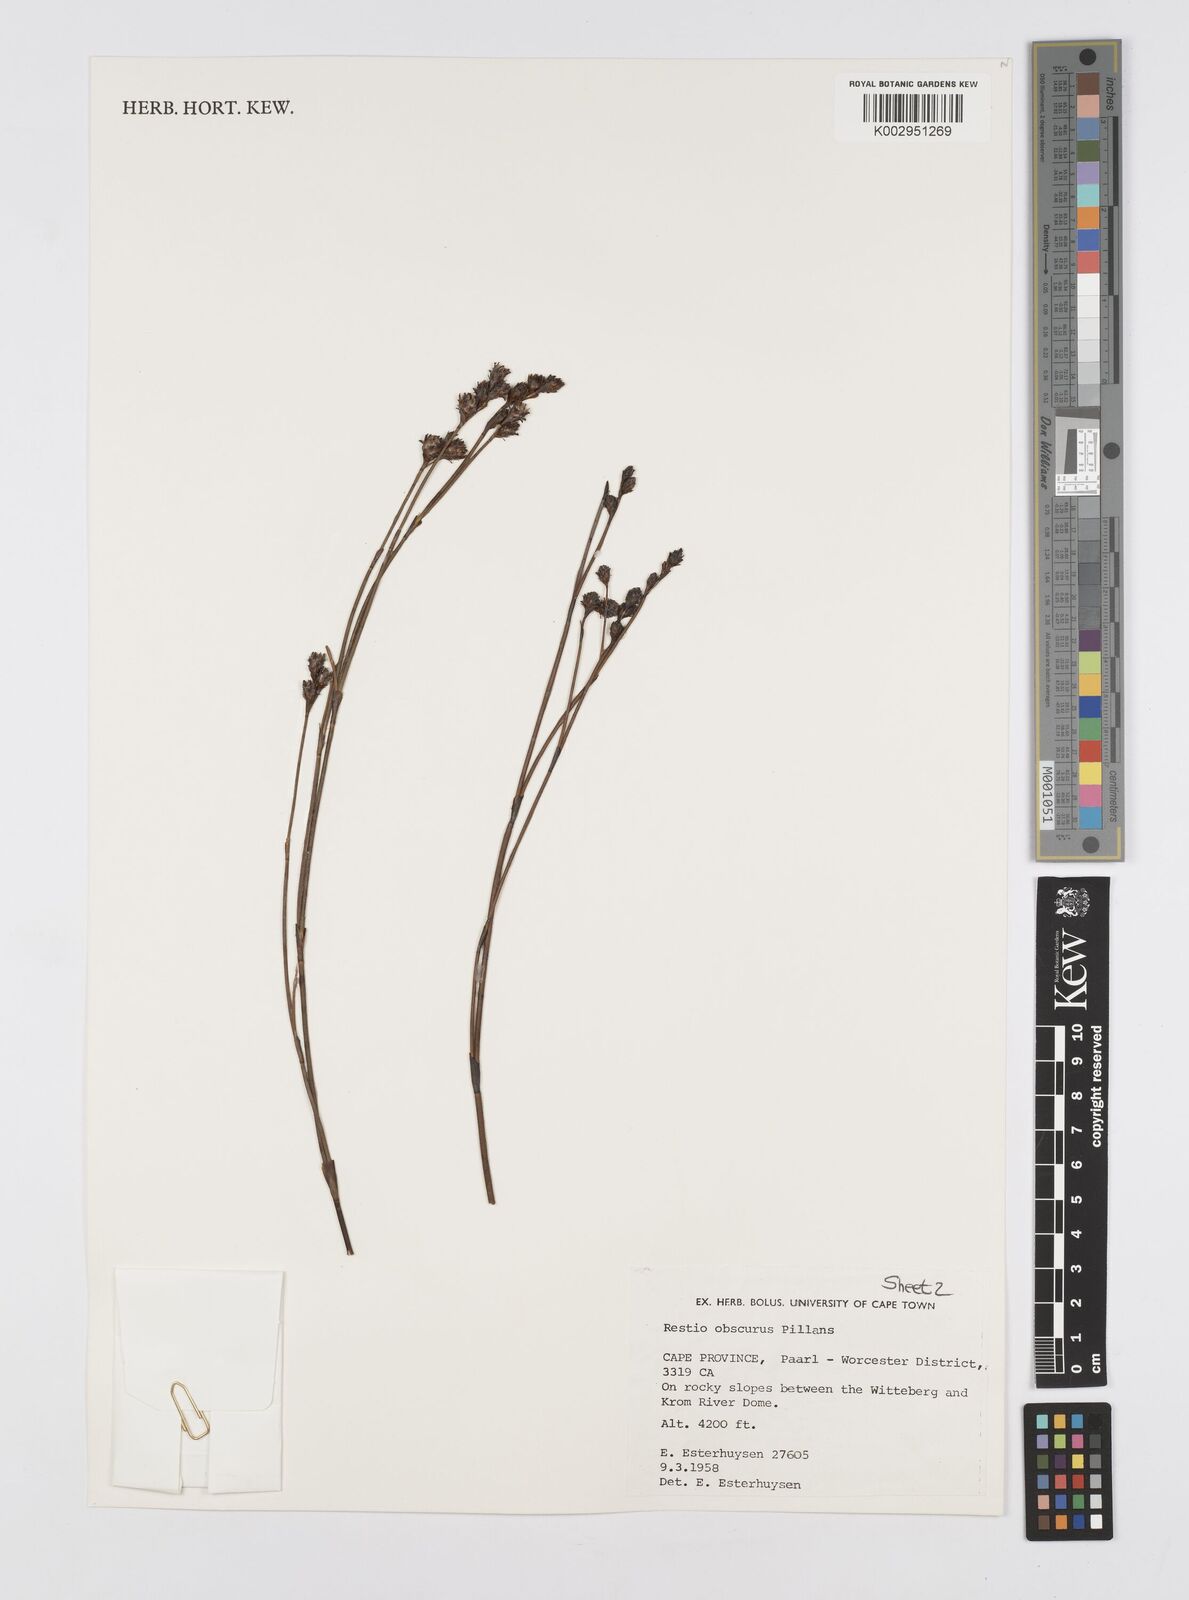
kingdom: Plantae
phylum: Tracheophyta
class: Liliopsida
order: Poales
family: Restionaceae
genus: Restio
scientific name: Restio obscurus
